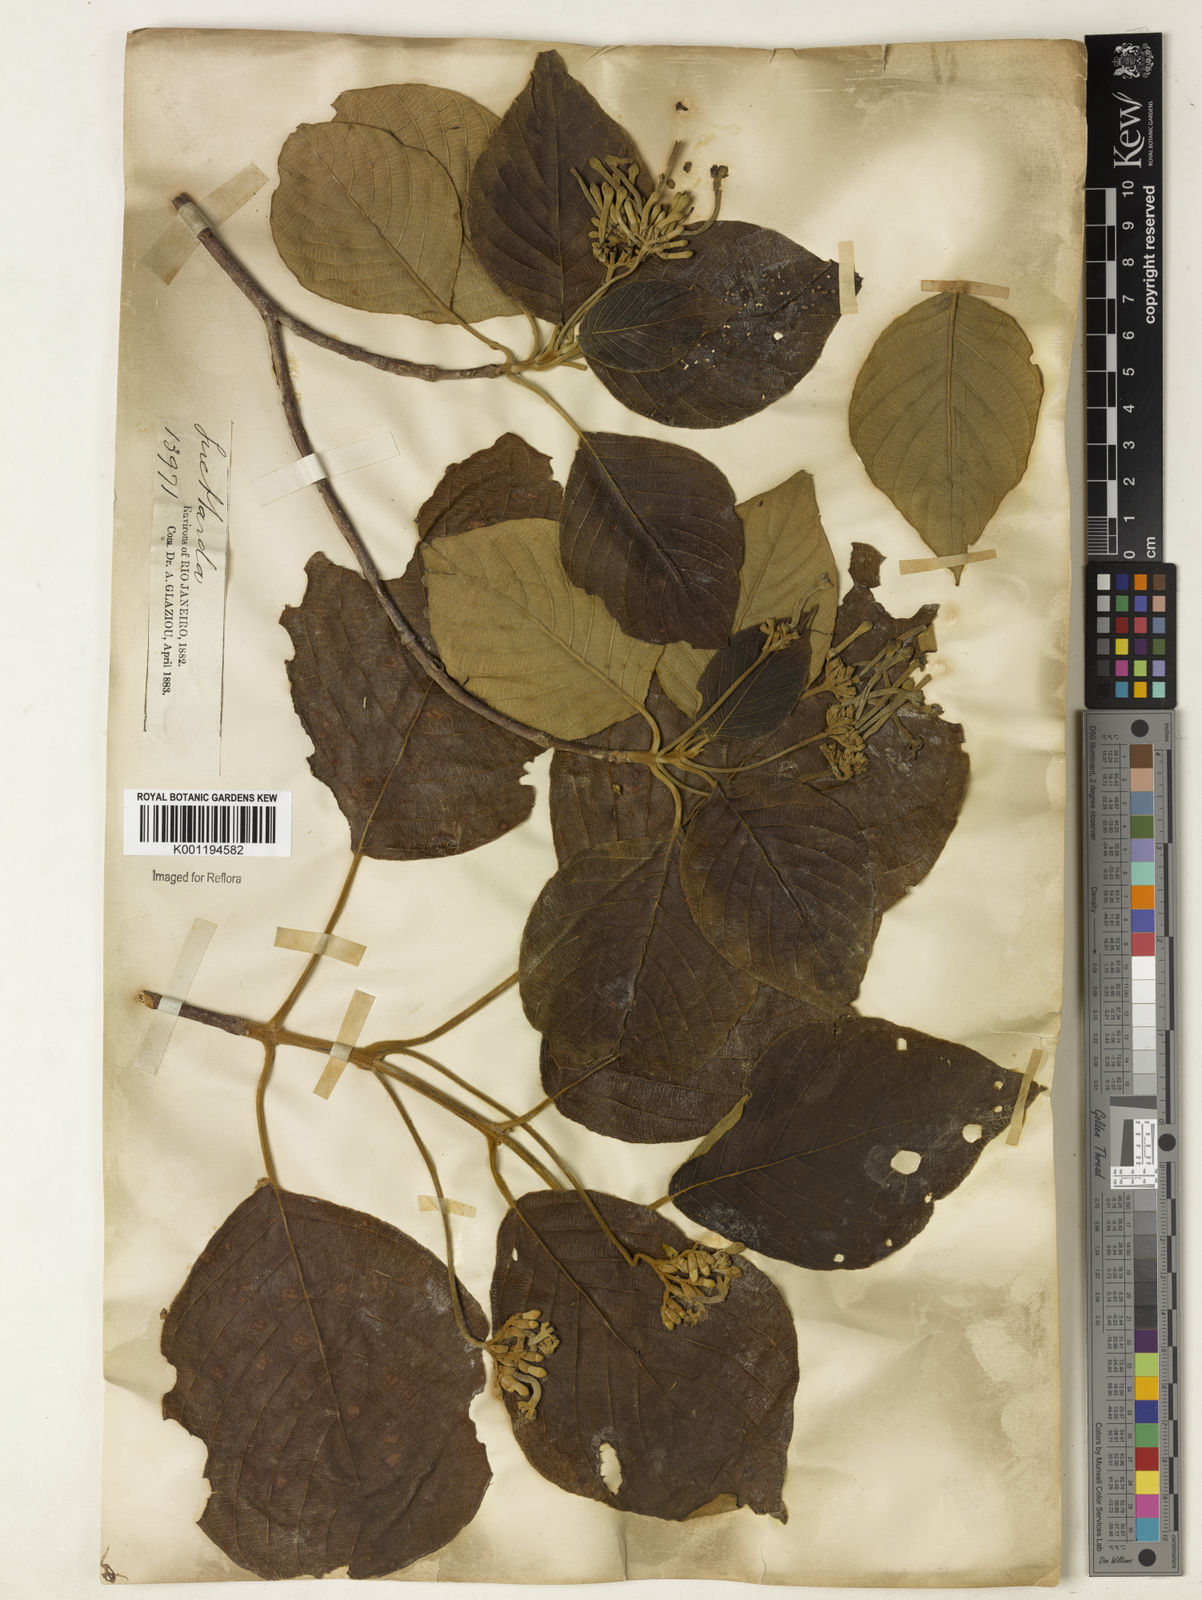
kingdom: Plantae
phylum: Tracheophyta
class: Magnoliopsida
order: Gentianales
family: Rubiaceae
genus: Guettarda
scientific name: Guettarda viburnoides
